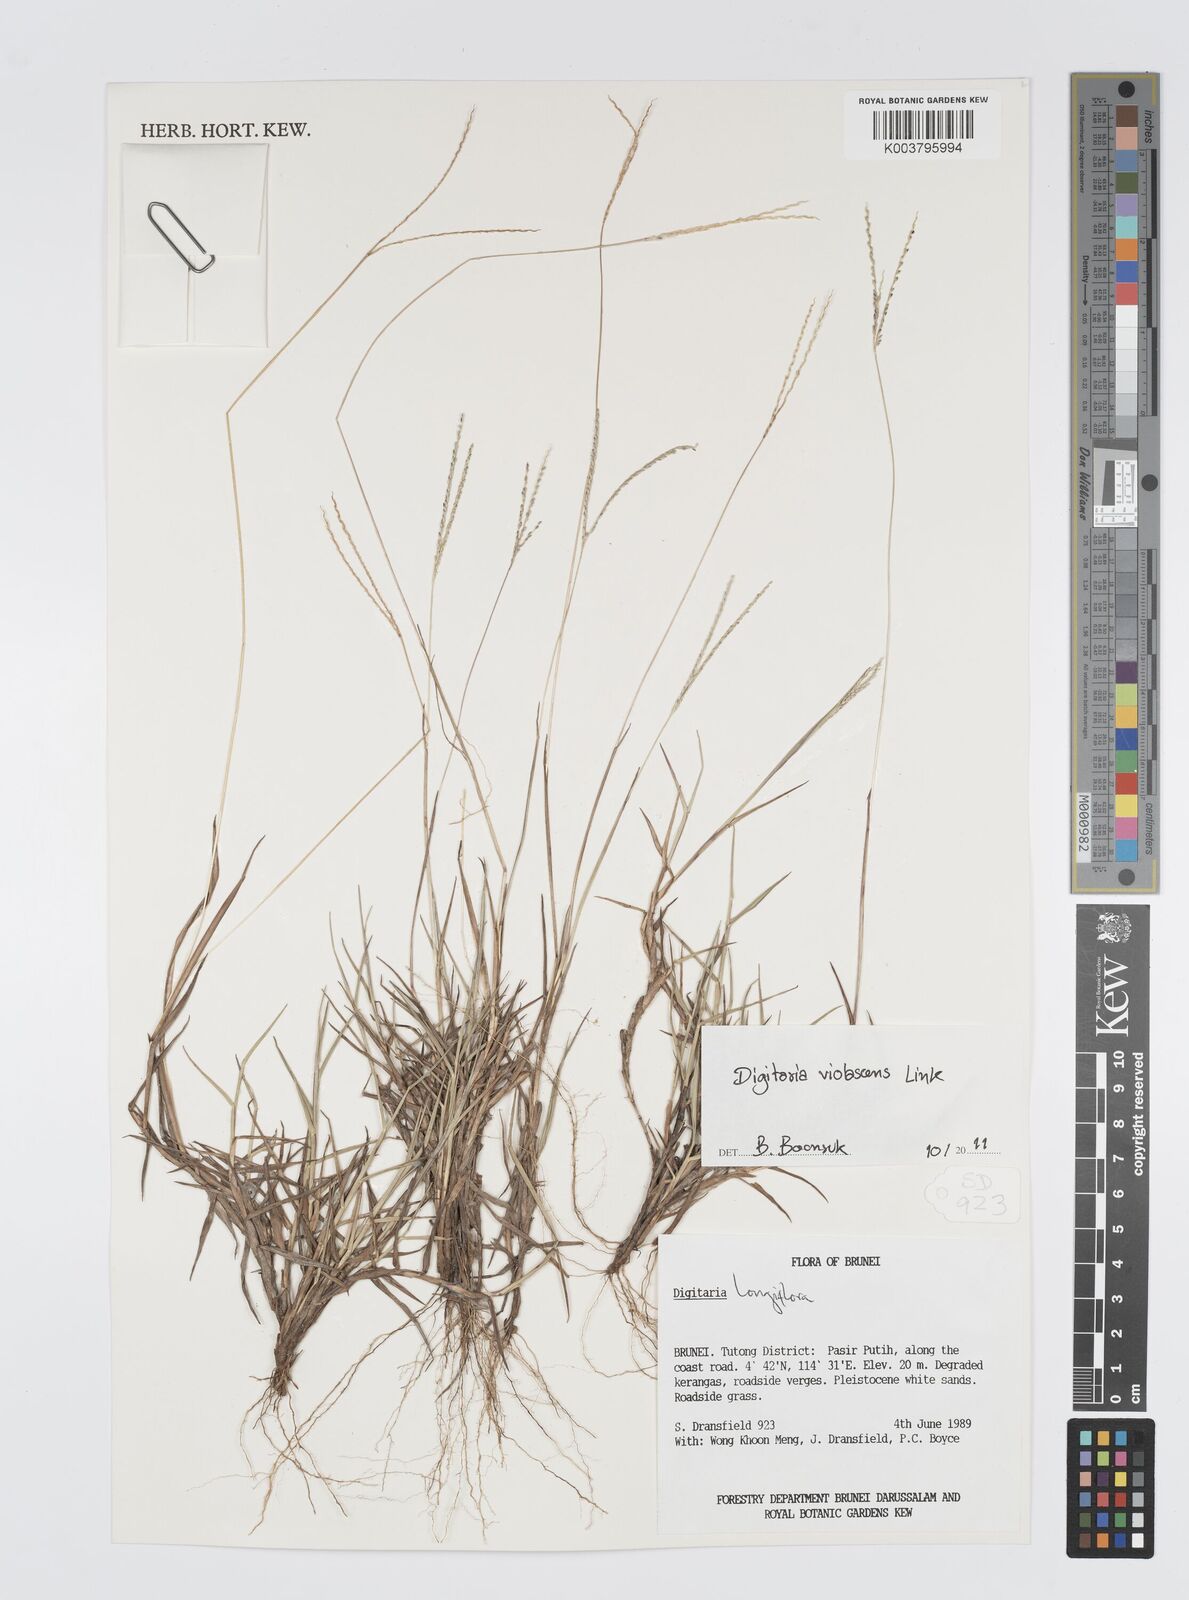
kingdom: Plantae
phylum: Tracheophyta
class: Liliopsida
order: Poales
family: Poaceae
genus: Digitaria
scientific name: Digitaria violascens
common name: Violet crabgrass
